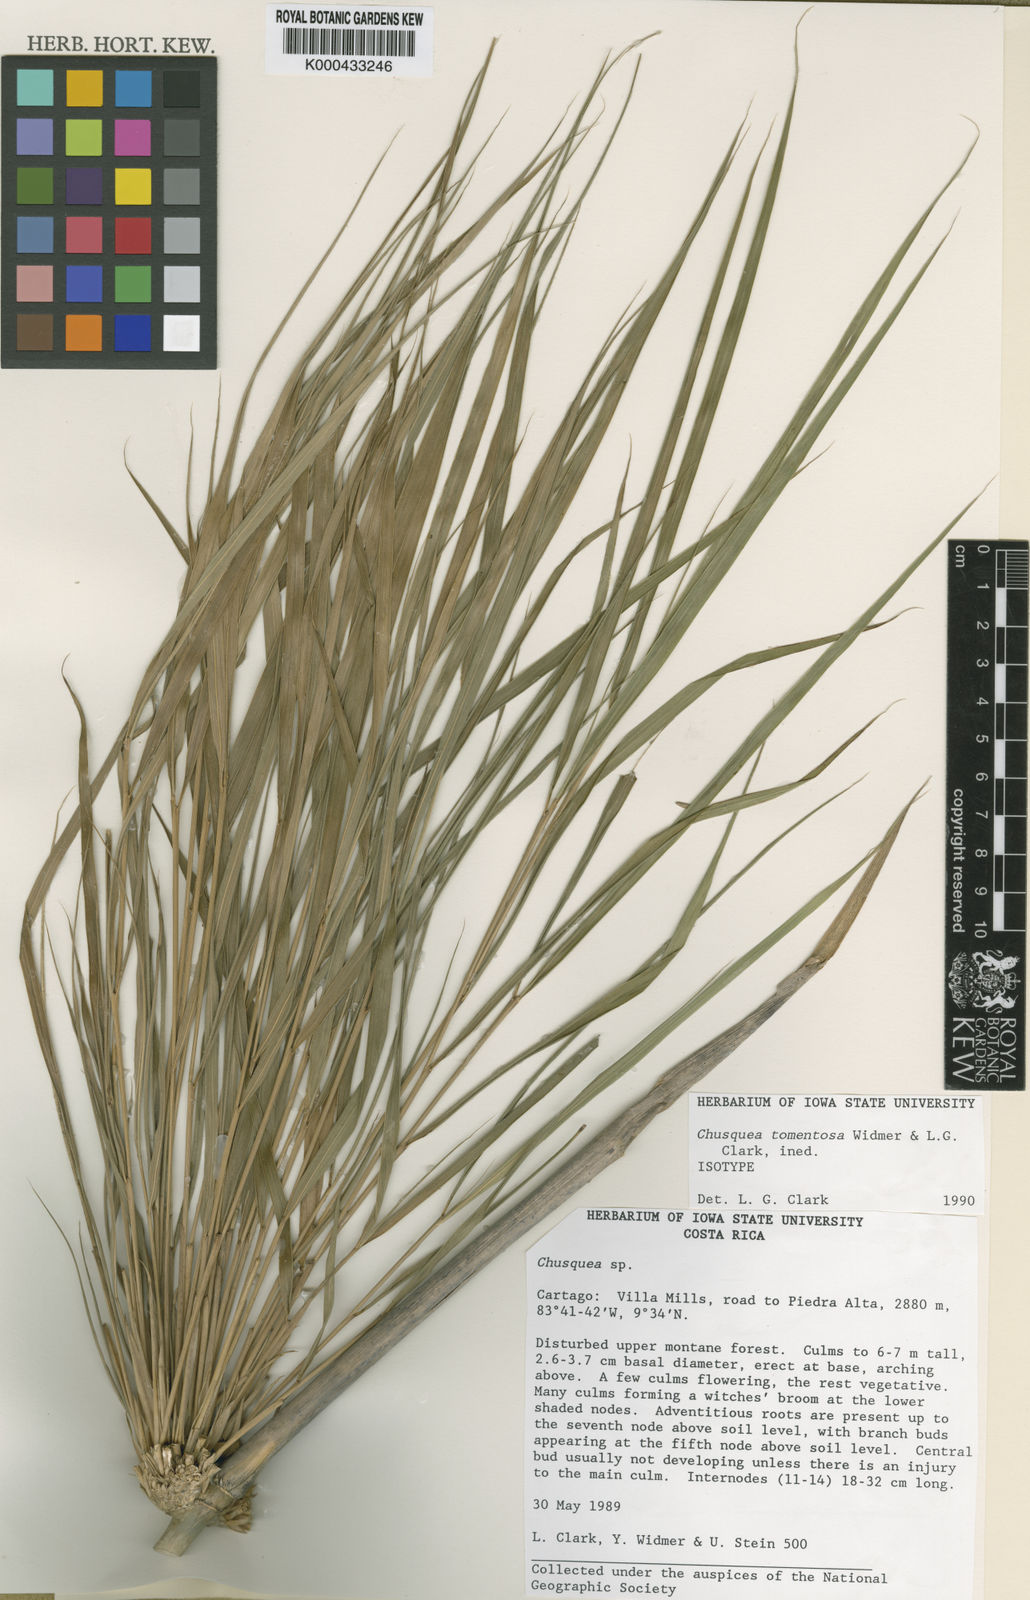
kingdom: Plantae
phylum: Tracheophyta
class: Liliopsida
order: Poales
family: Poaceae
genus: Chusquea
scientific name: Chusquea tomentosa
